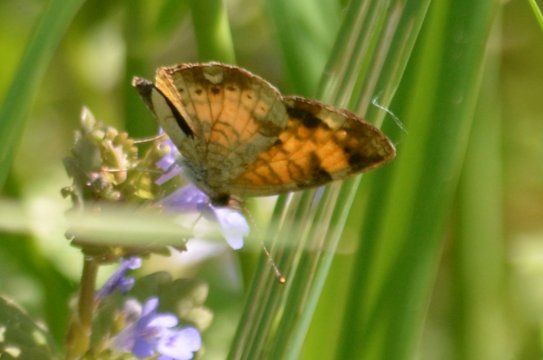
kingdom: Animalia
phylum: Arthropoda
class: Insecta
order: Lepidoptera
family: Nymphalidae
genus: Phyciodes
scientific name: Phyciodes
